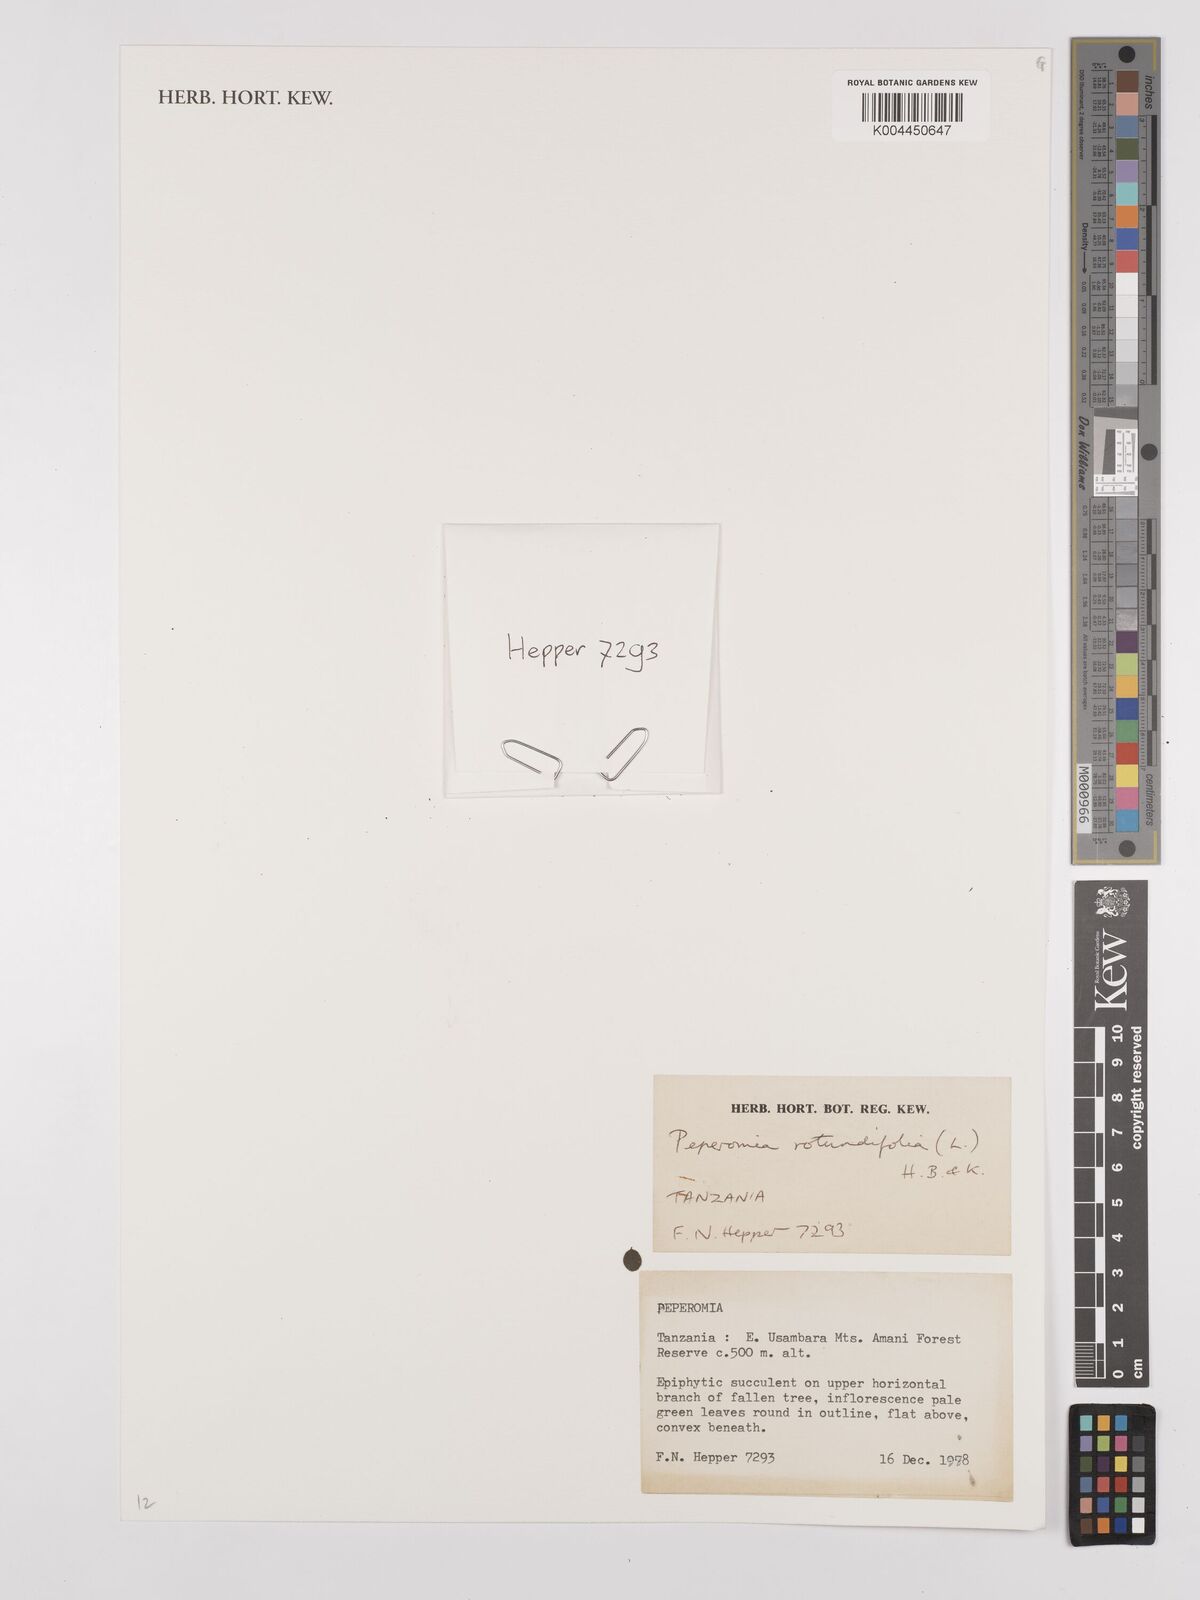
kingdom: Plantae
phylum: Tracheophyta
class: Magnoliopsida
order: Piperales
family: Piperaceae
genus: Peperomia
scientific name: Peperomia rotundifolia
